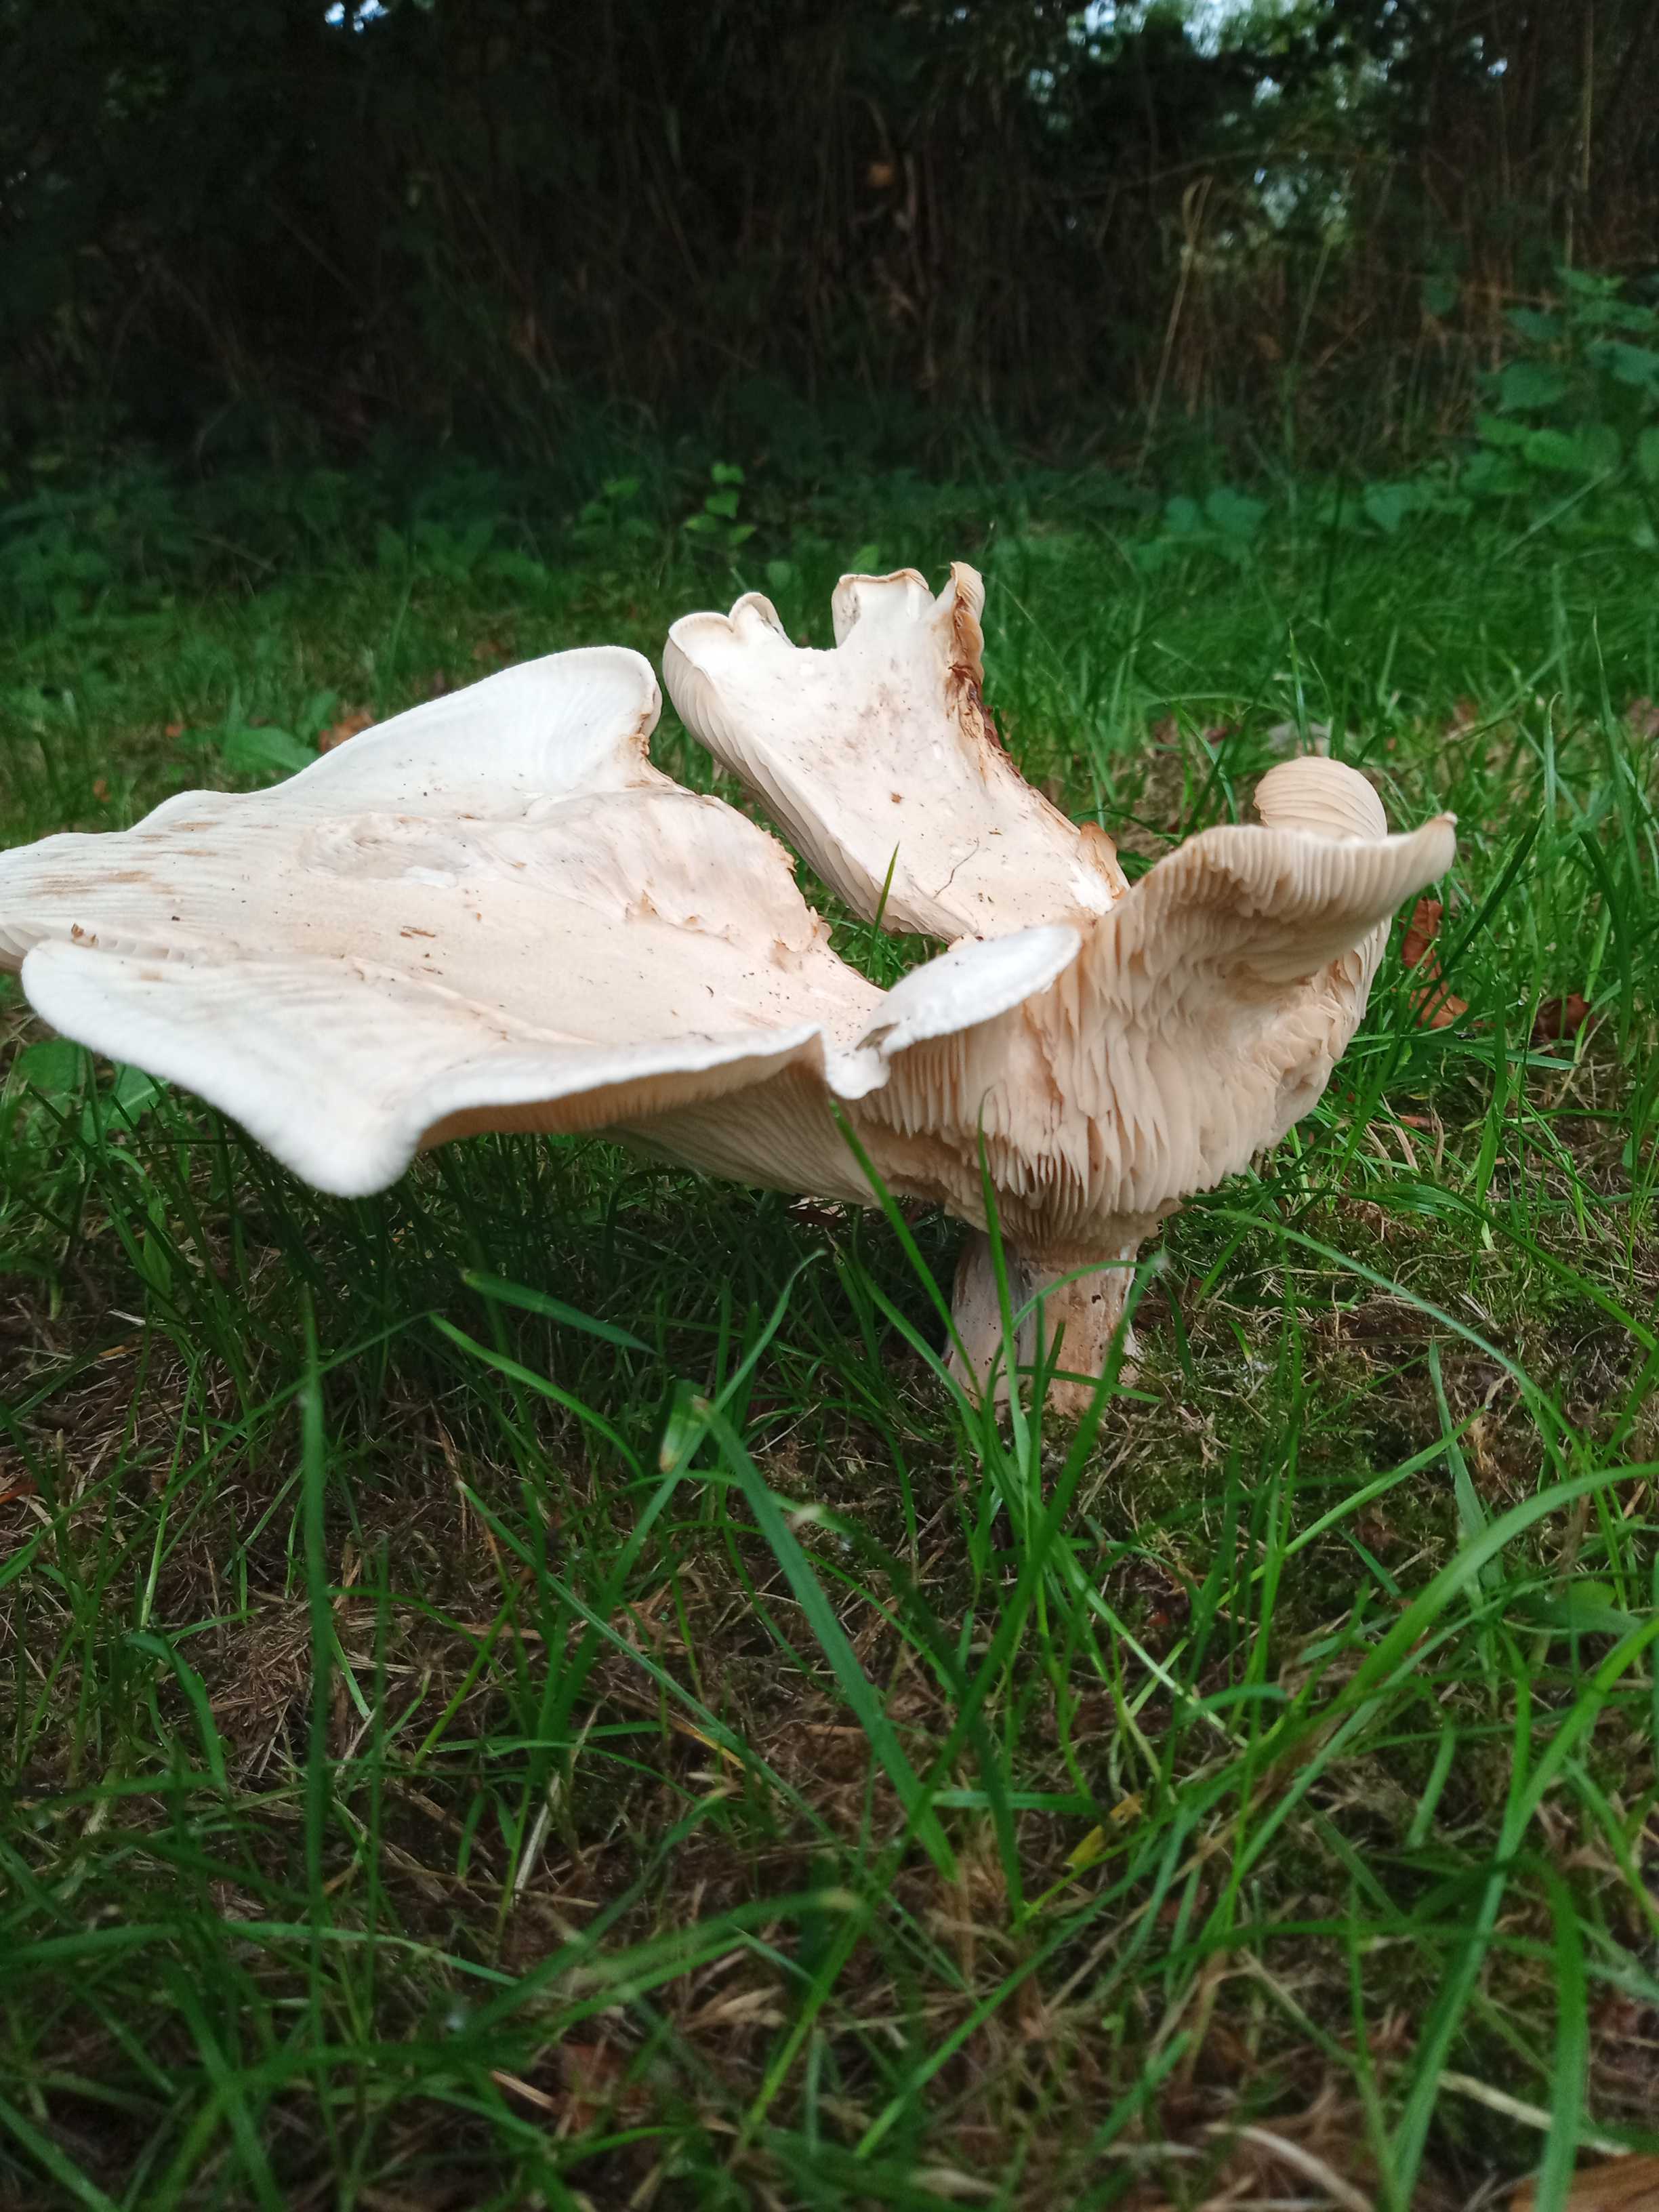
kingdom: Fungi
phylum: Basidiomycota
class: Agaricomycetes
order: Agaricales
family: Tricholomataceae
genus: Aspropaxillus
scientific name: Aspropaxillus giganteus
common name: kæmpe-tragtridderhat
